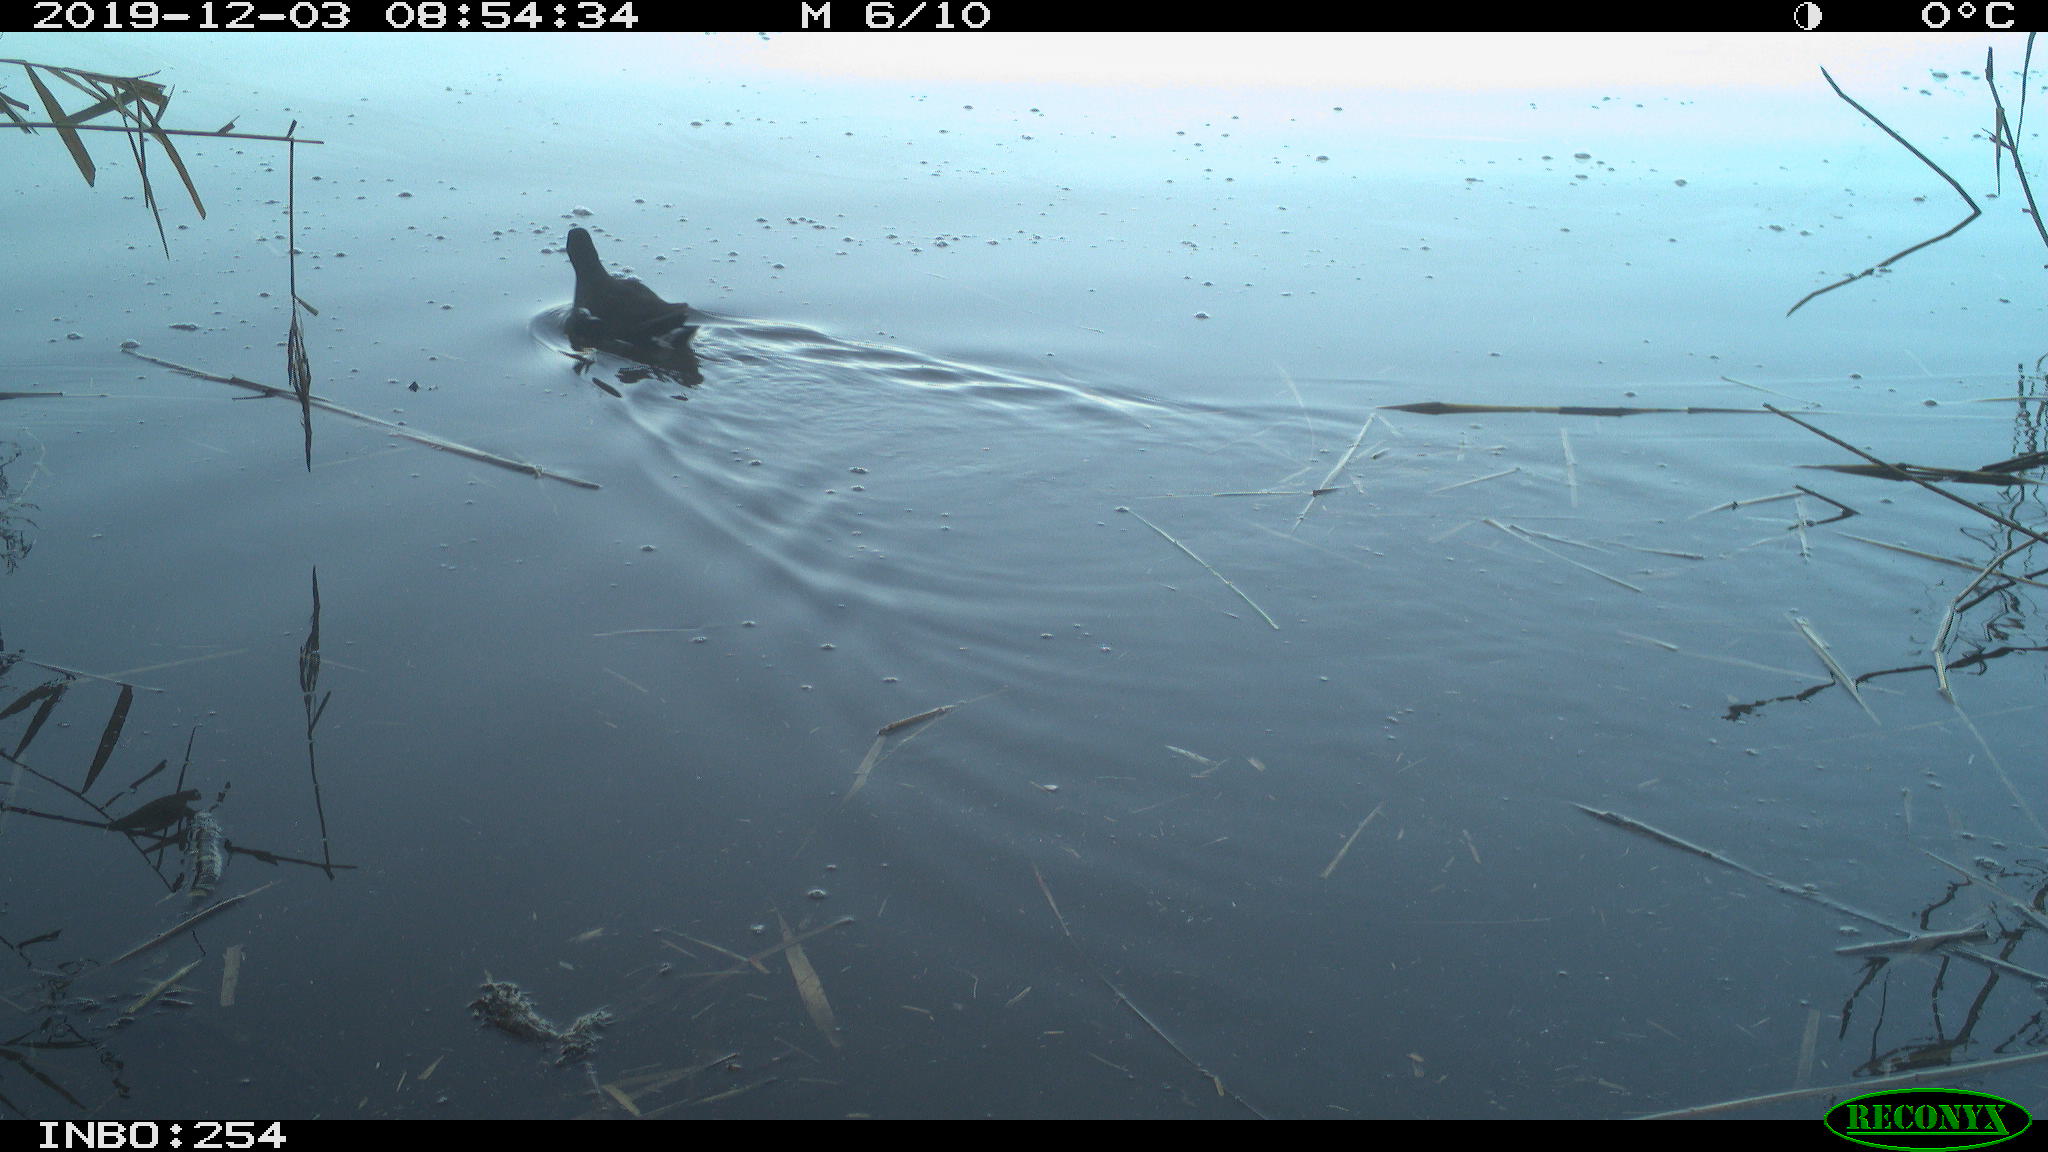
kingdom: Animalia
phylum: Chordata
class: Aves
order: Gruiformes
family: Rallidae
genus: Gallinula
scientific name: Gallinula chloropus
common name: Common moorhen
